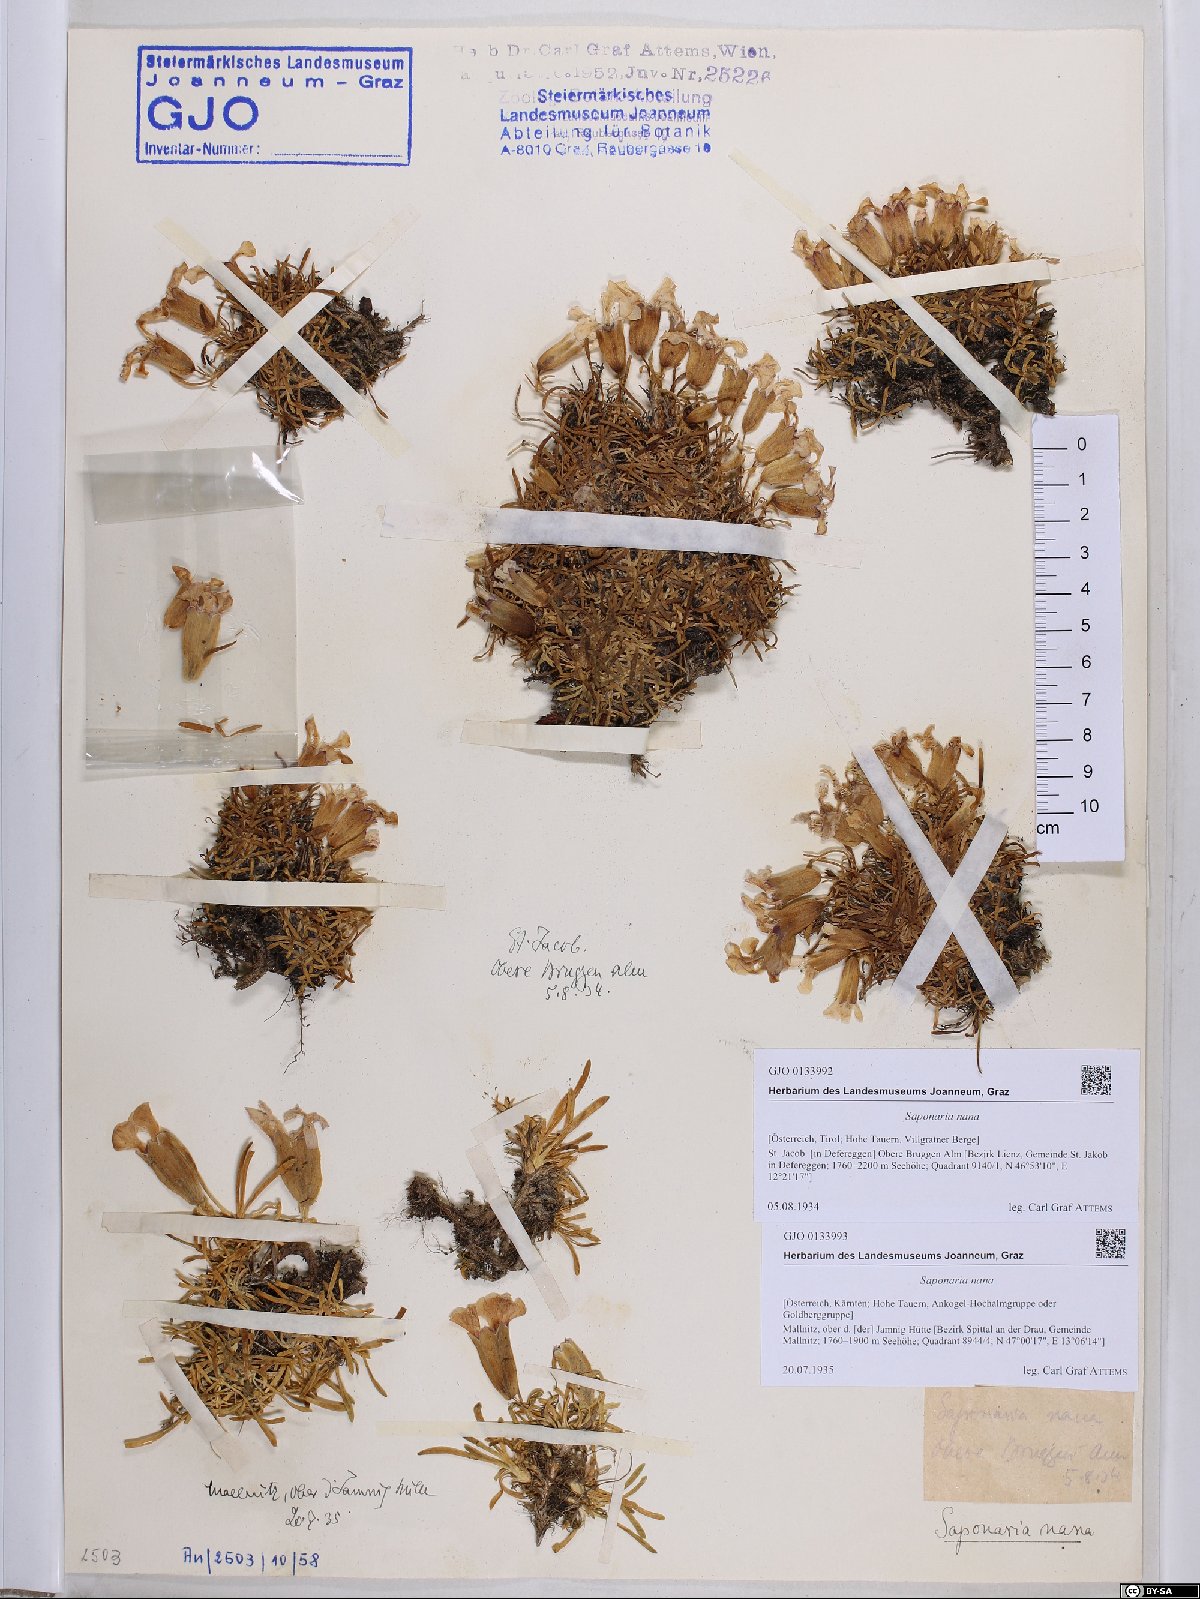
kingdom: Plantae
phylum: Tracheophyta
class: Magnoliopsida
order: Caryophyllales
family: Caryophyllaceae
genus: Saponaria
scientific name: Saponaria pumila
